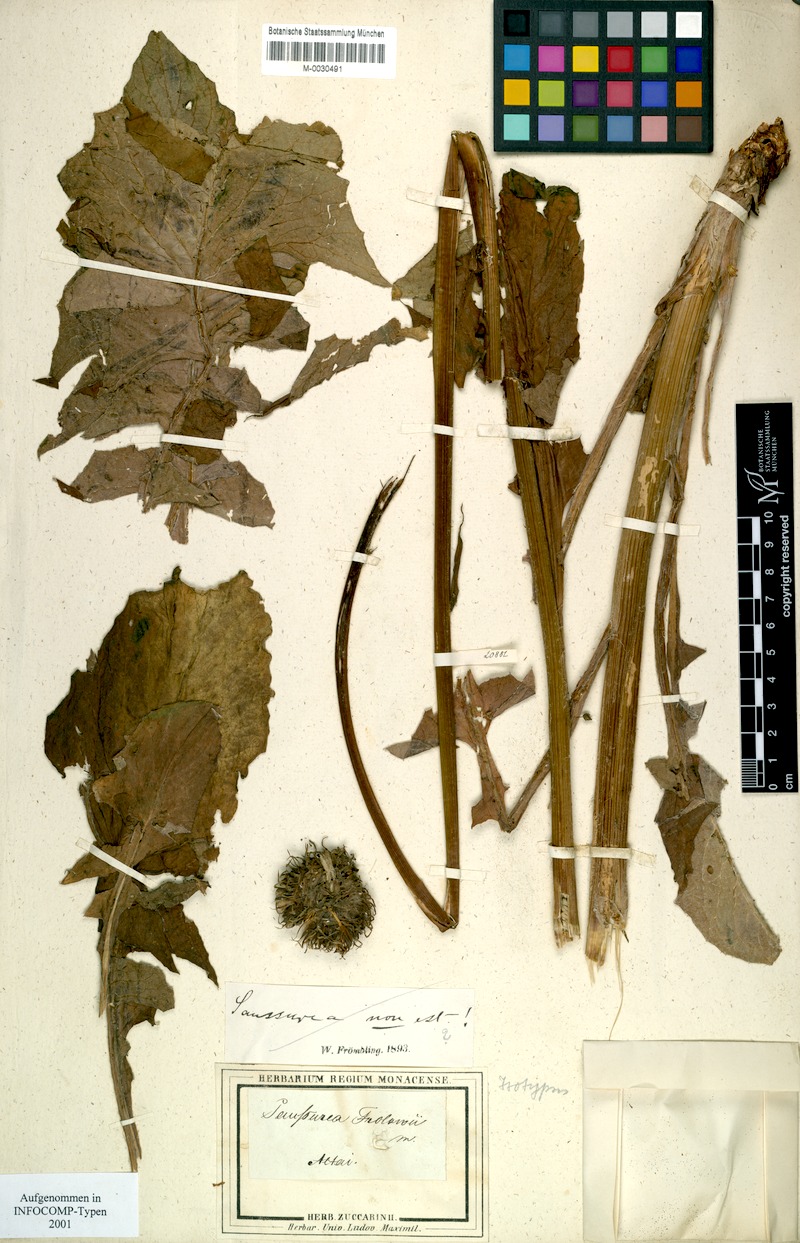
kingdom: Plantae
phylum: Tracheophyta
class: Magnoliopsida
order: Asterales
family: Asteraceae
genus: Dolomiaea
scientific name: Dolomiaea frolowii
